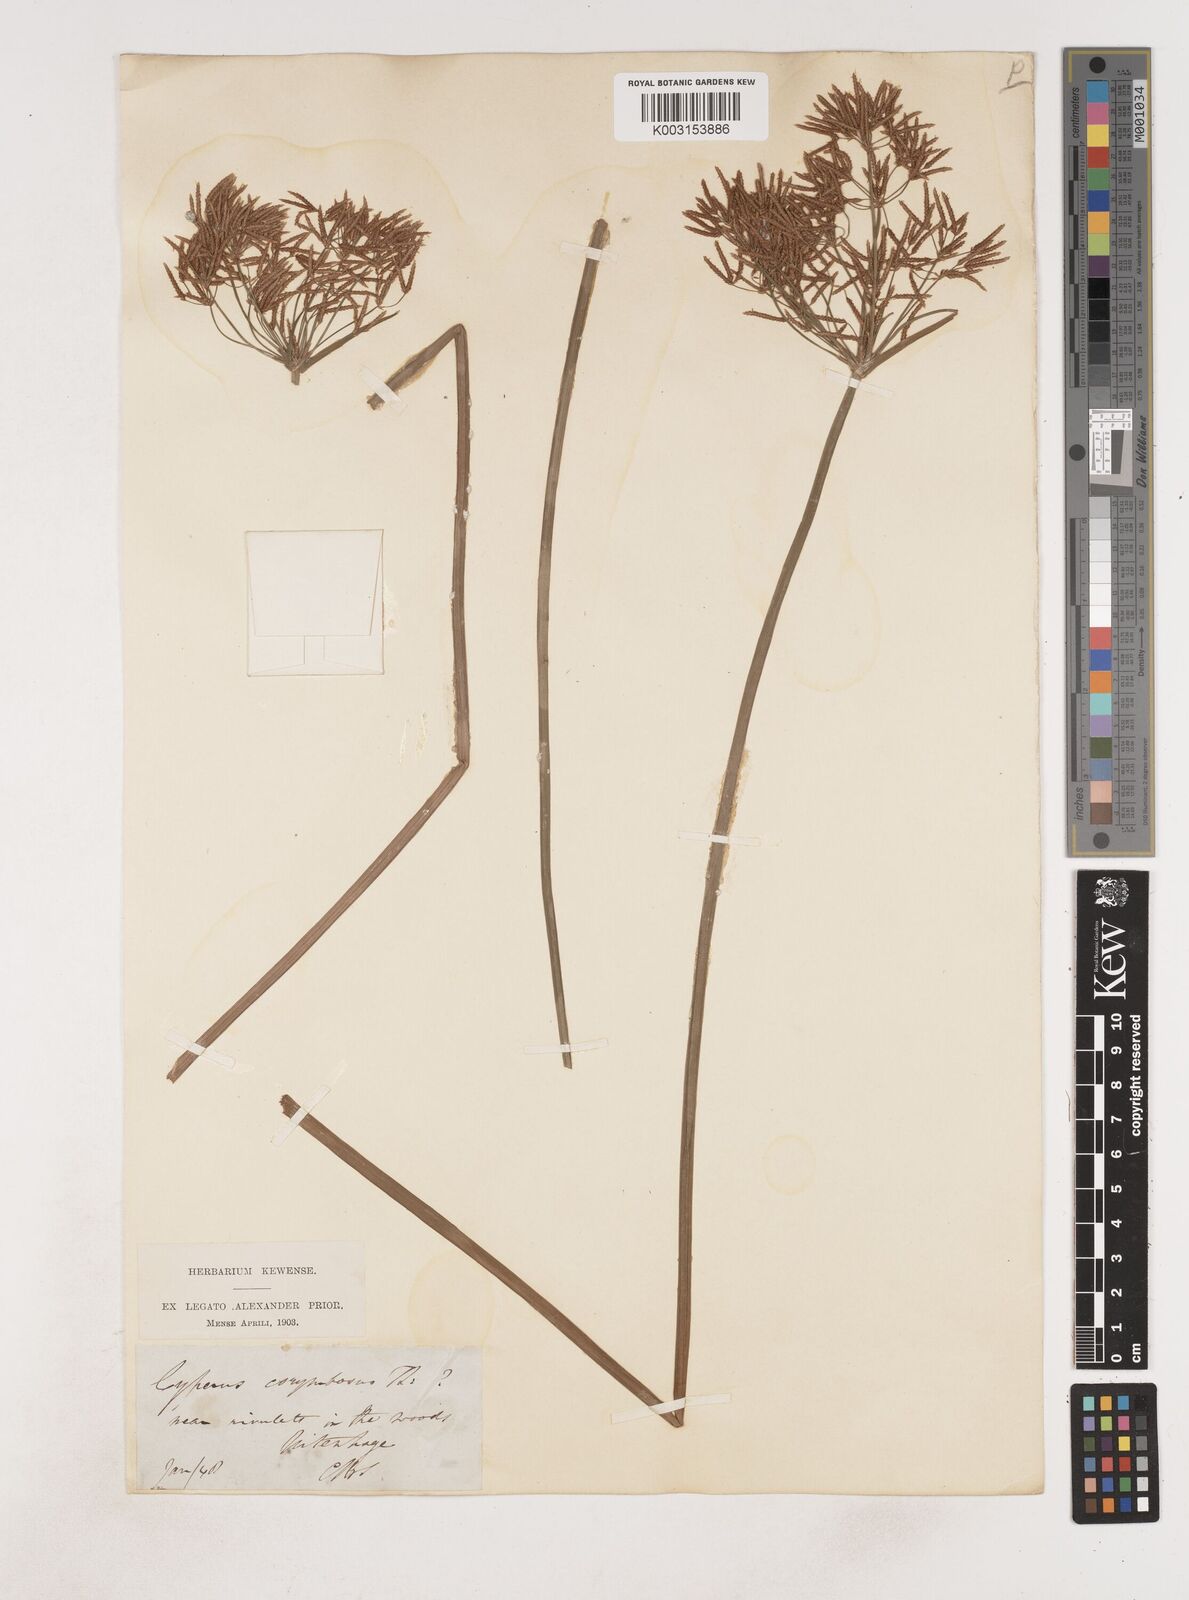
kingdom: Plantae
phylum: Tracheophyta
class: Liliopsida
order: Poales
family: Cyperaceae
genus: Cyperus
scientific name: Cyperus
